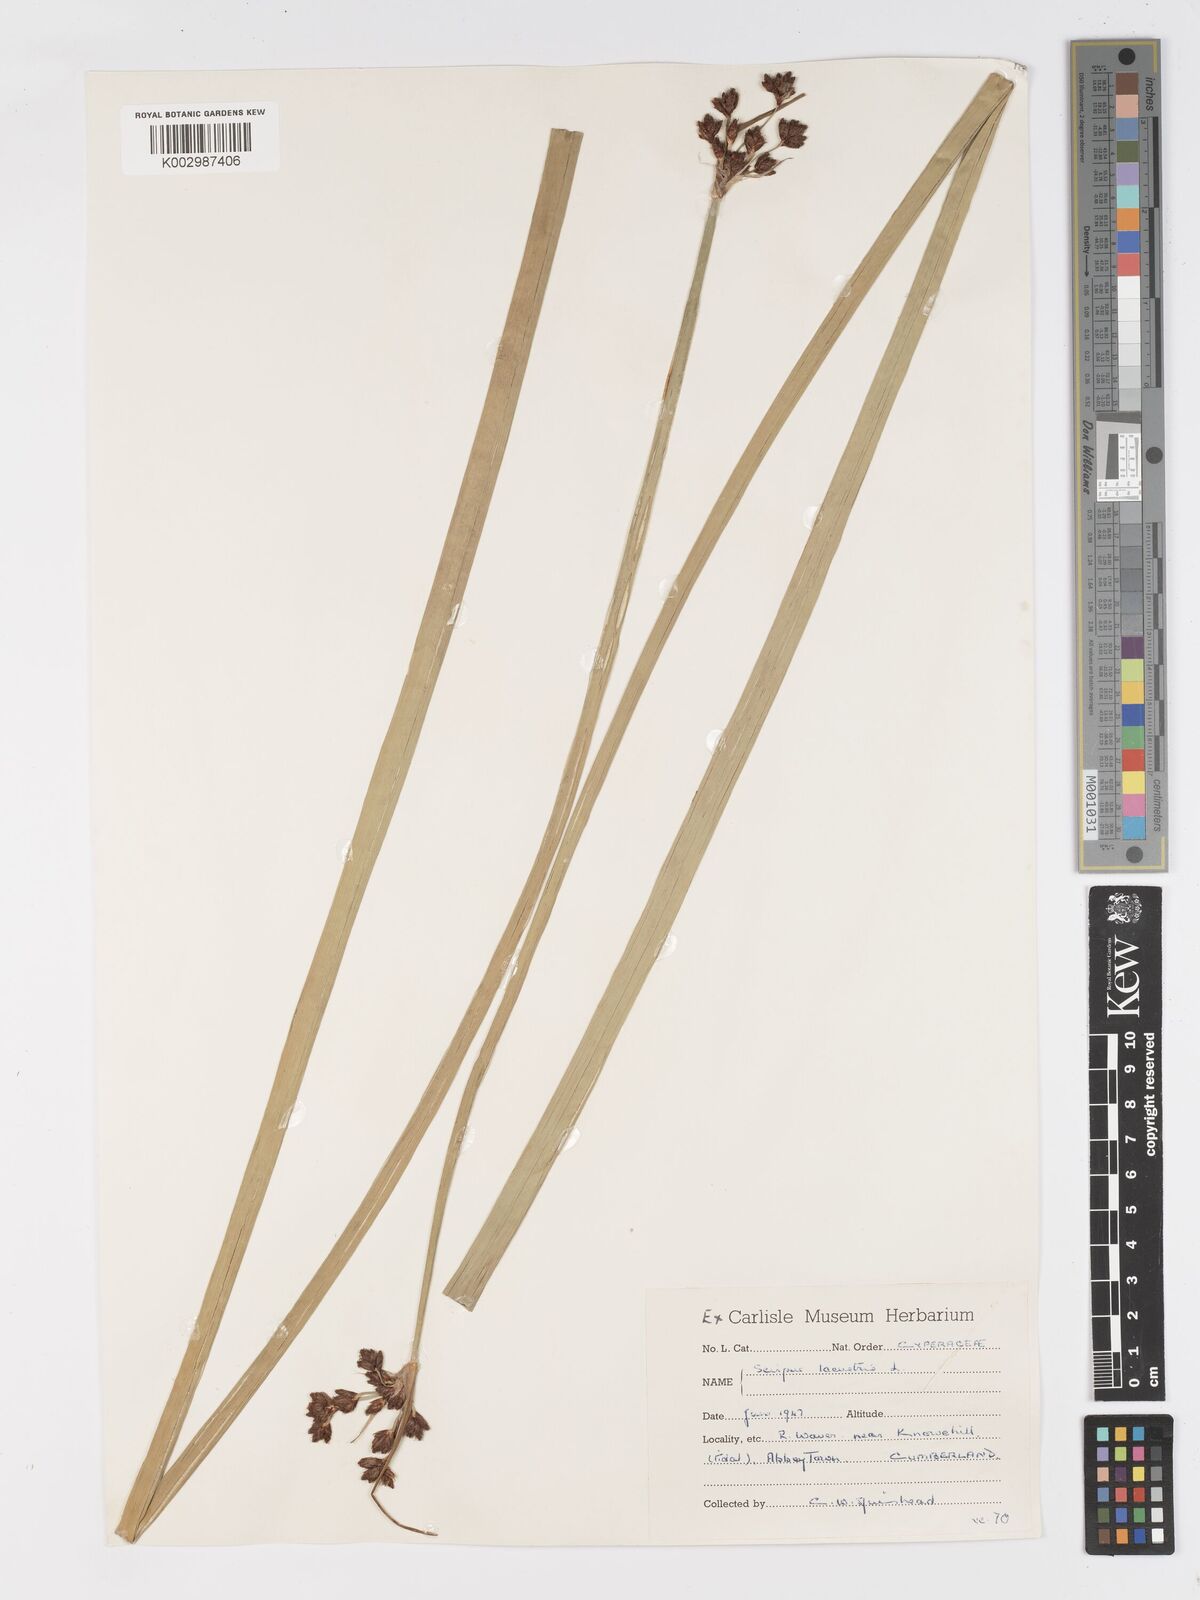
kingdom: Plantae
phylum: Tracheophyta
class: Liliopsida
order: Poales
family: Cyperaceae
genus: Schoenoplectus
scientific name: Schoenoplectus lacustris
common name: Common club-rush
